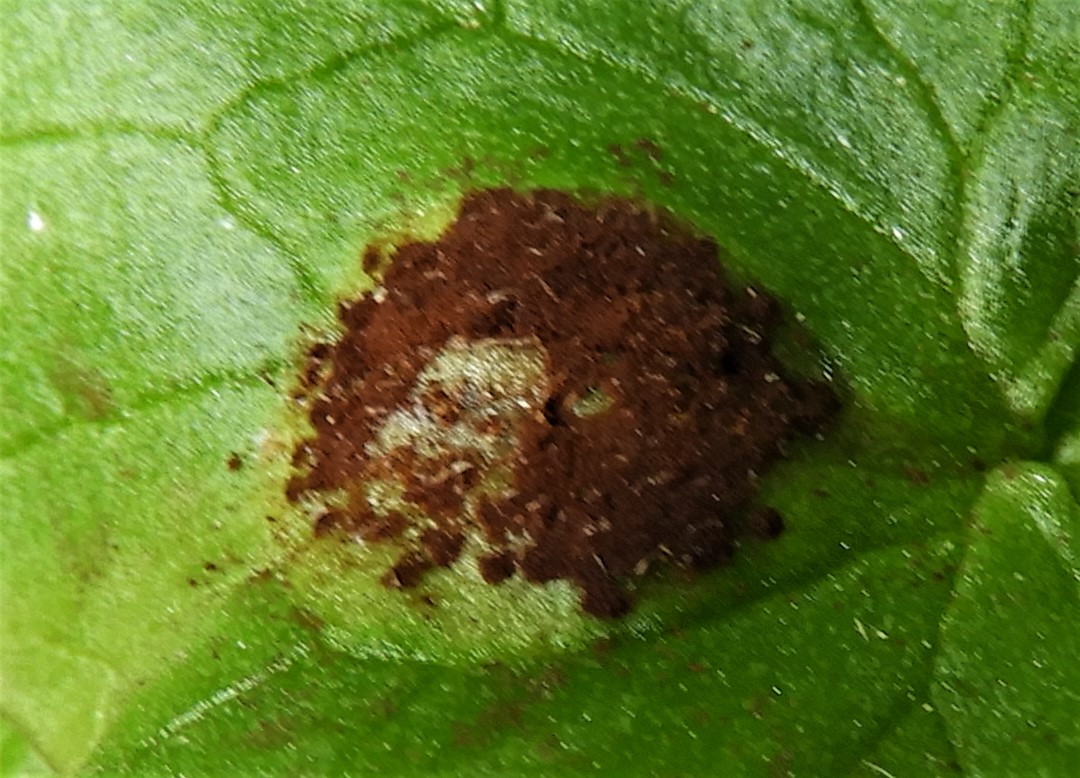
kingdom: Fungi
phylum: Basidiomycota
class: Pucciniomycetes
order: Pucciniales
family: Pucciniaceae
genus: Uromyces
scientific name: Uromyces ficariae
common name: vorterod-encellerust
